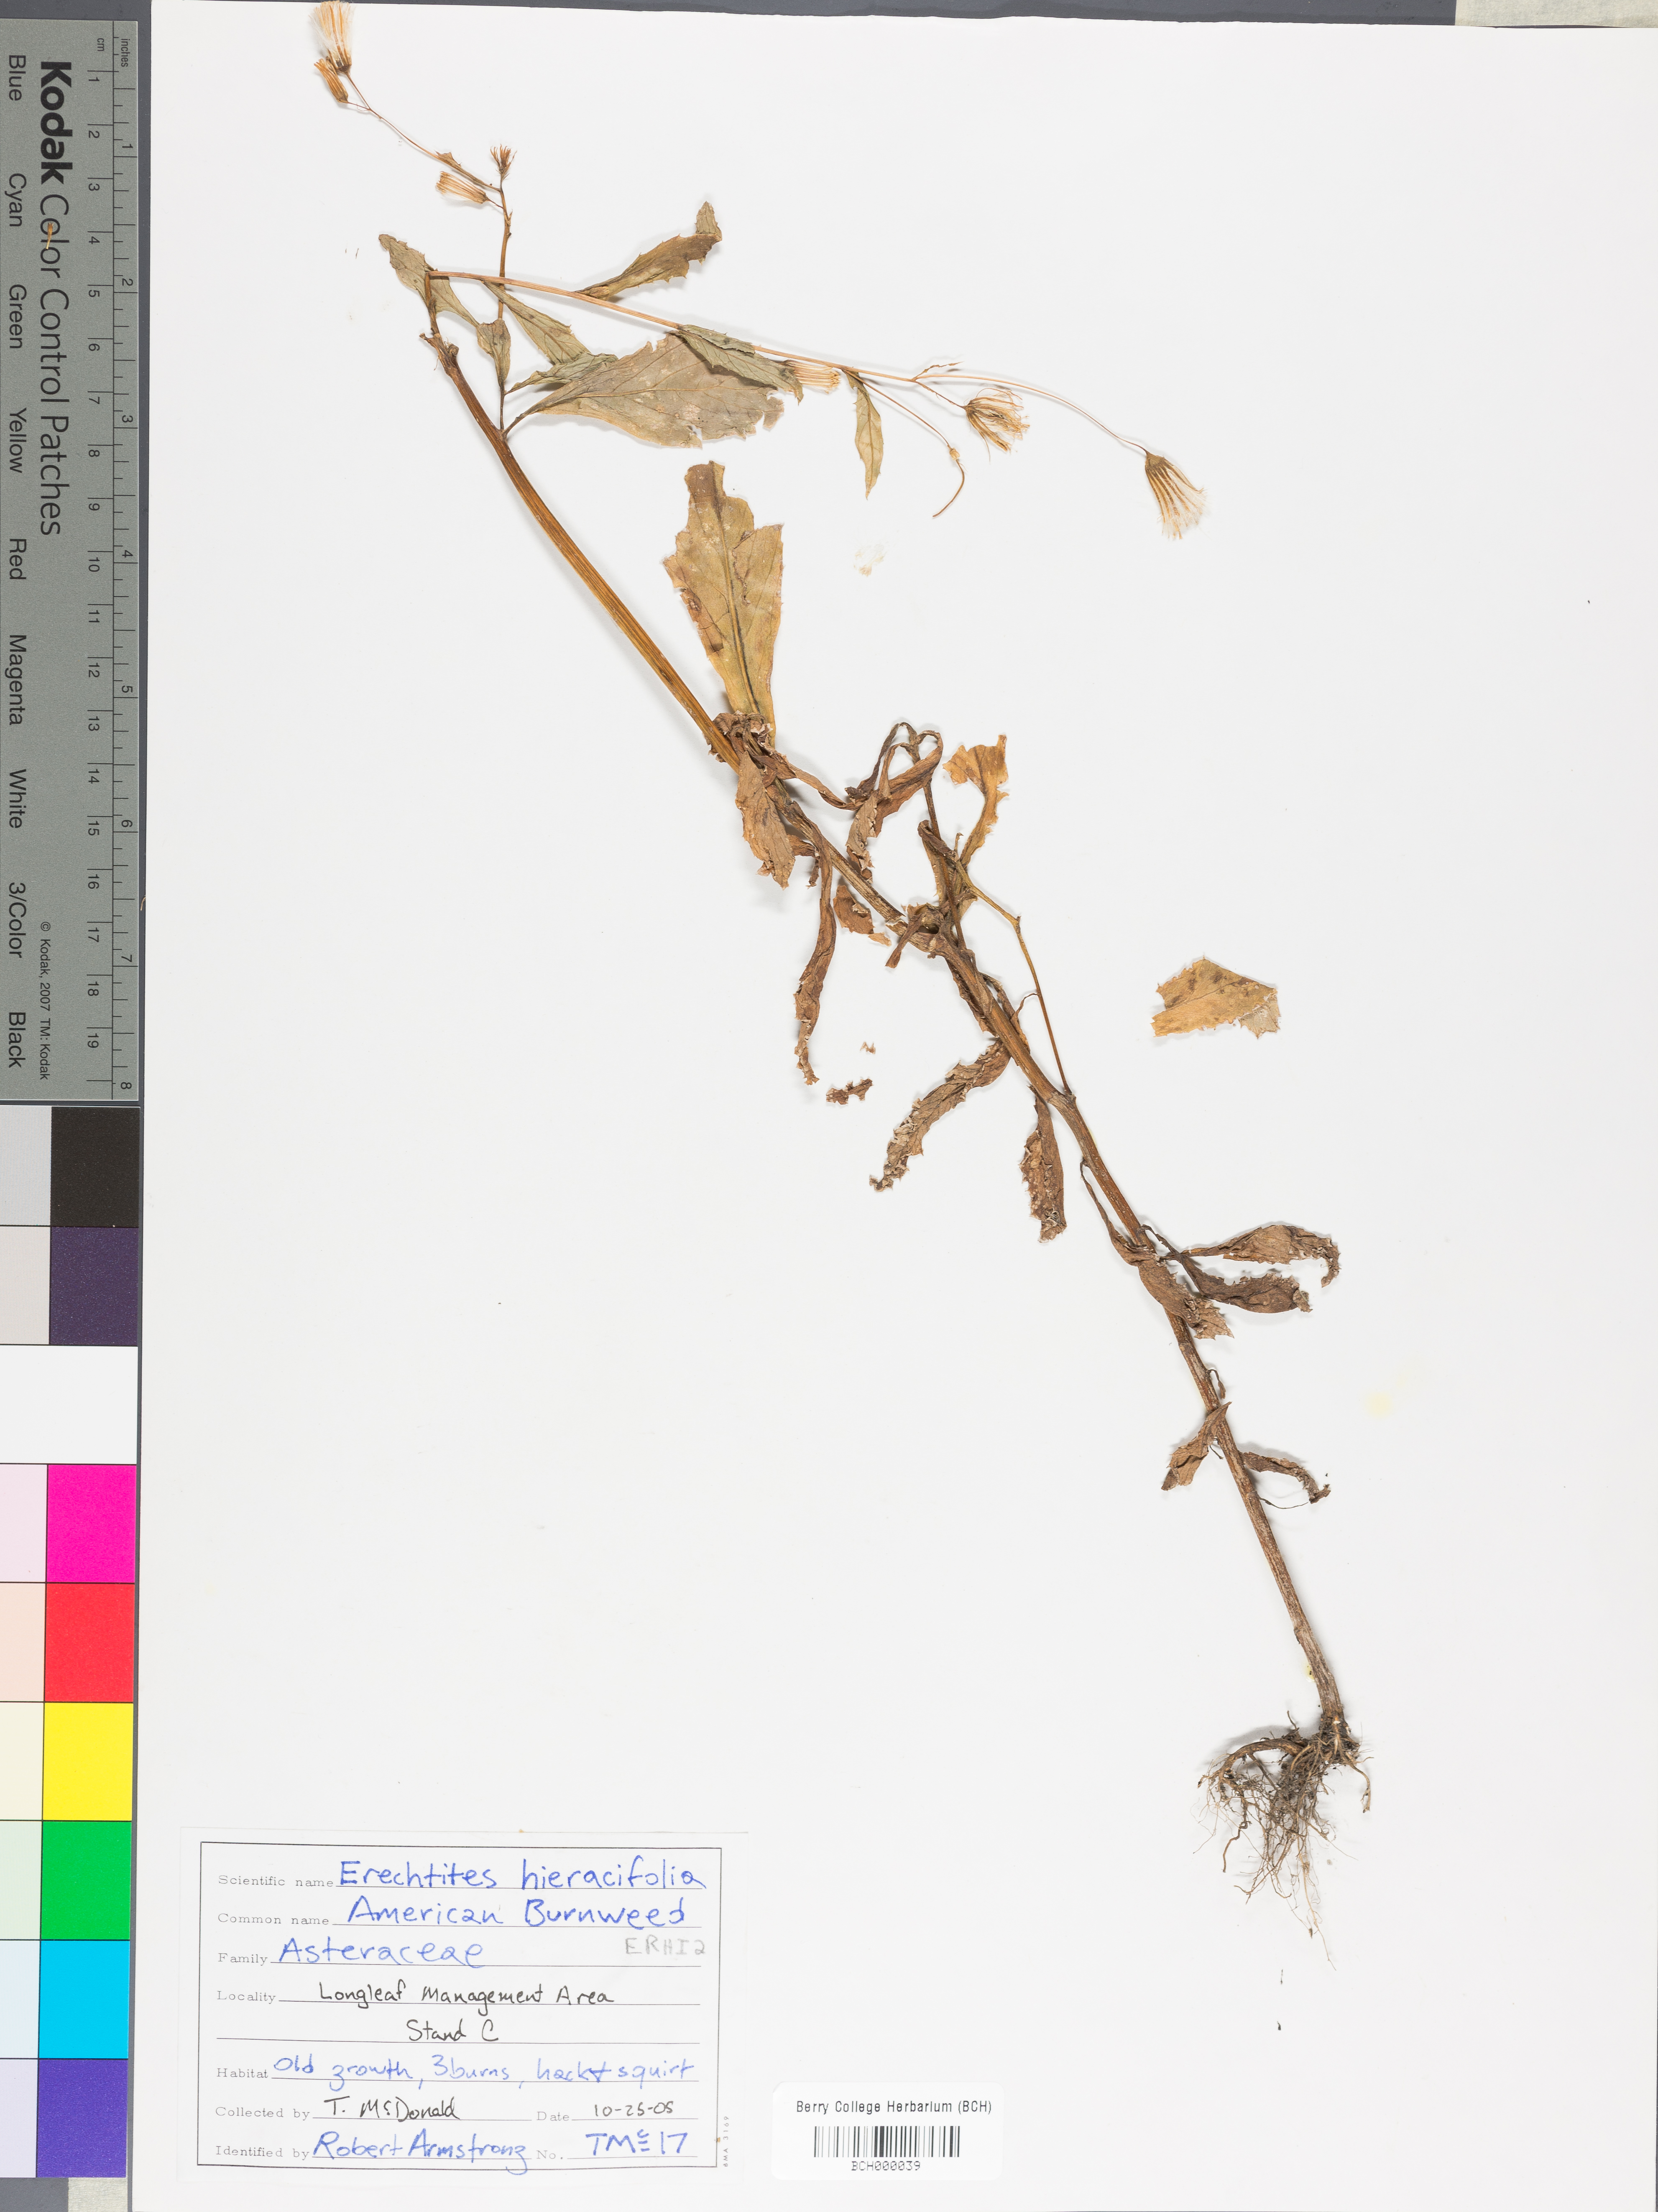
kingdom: Plantae
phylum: Tracheophyta
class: Magnoliopsida
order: Asterales
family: Asteraceae
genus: Erechtites
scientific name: Erechtites hieraciifolius
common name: American burnweed
